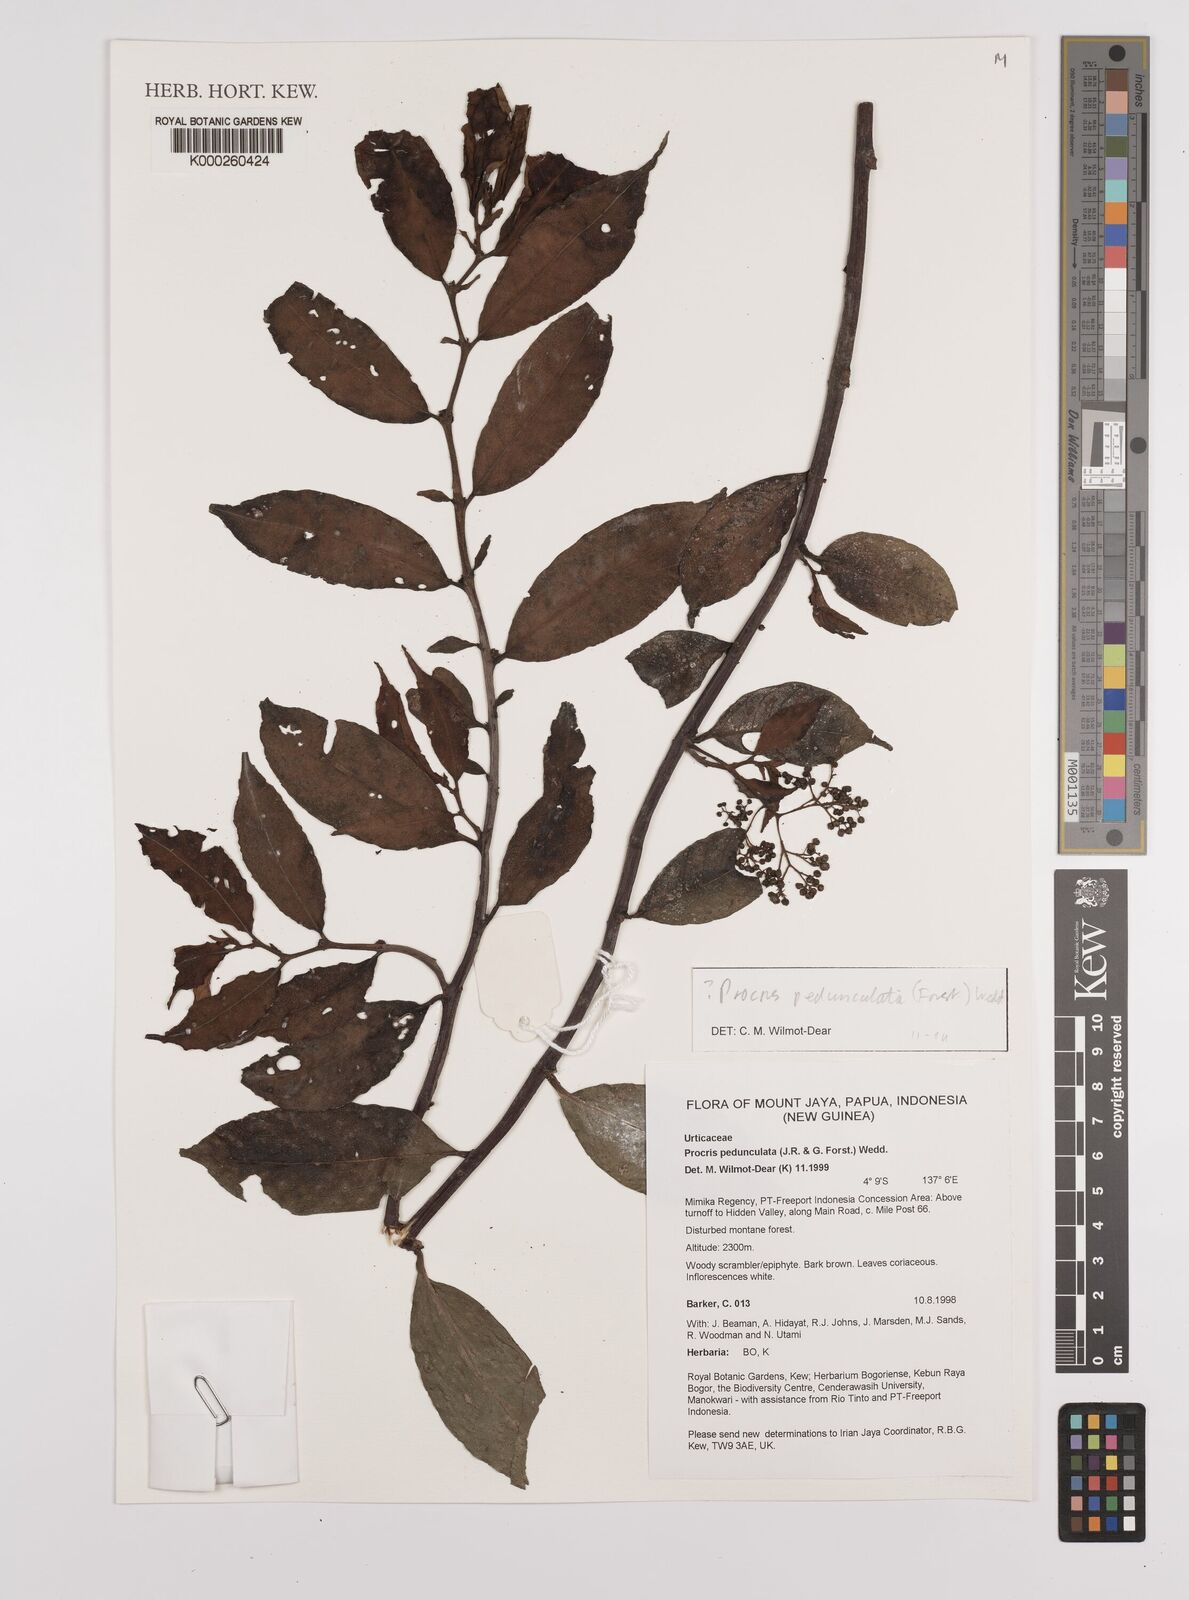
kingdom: Plantae
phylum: Tracheophyta
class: Magnoliopsida
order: Rosales
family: Urticaceae
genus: Procris
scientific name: Procris pedunculata
